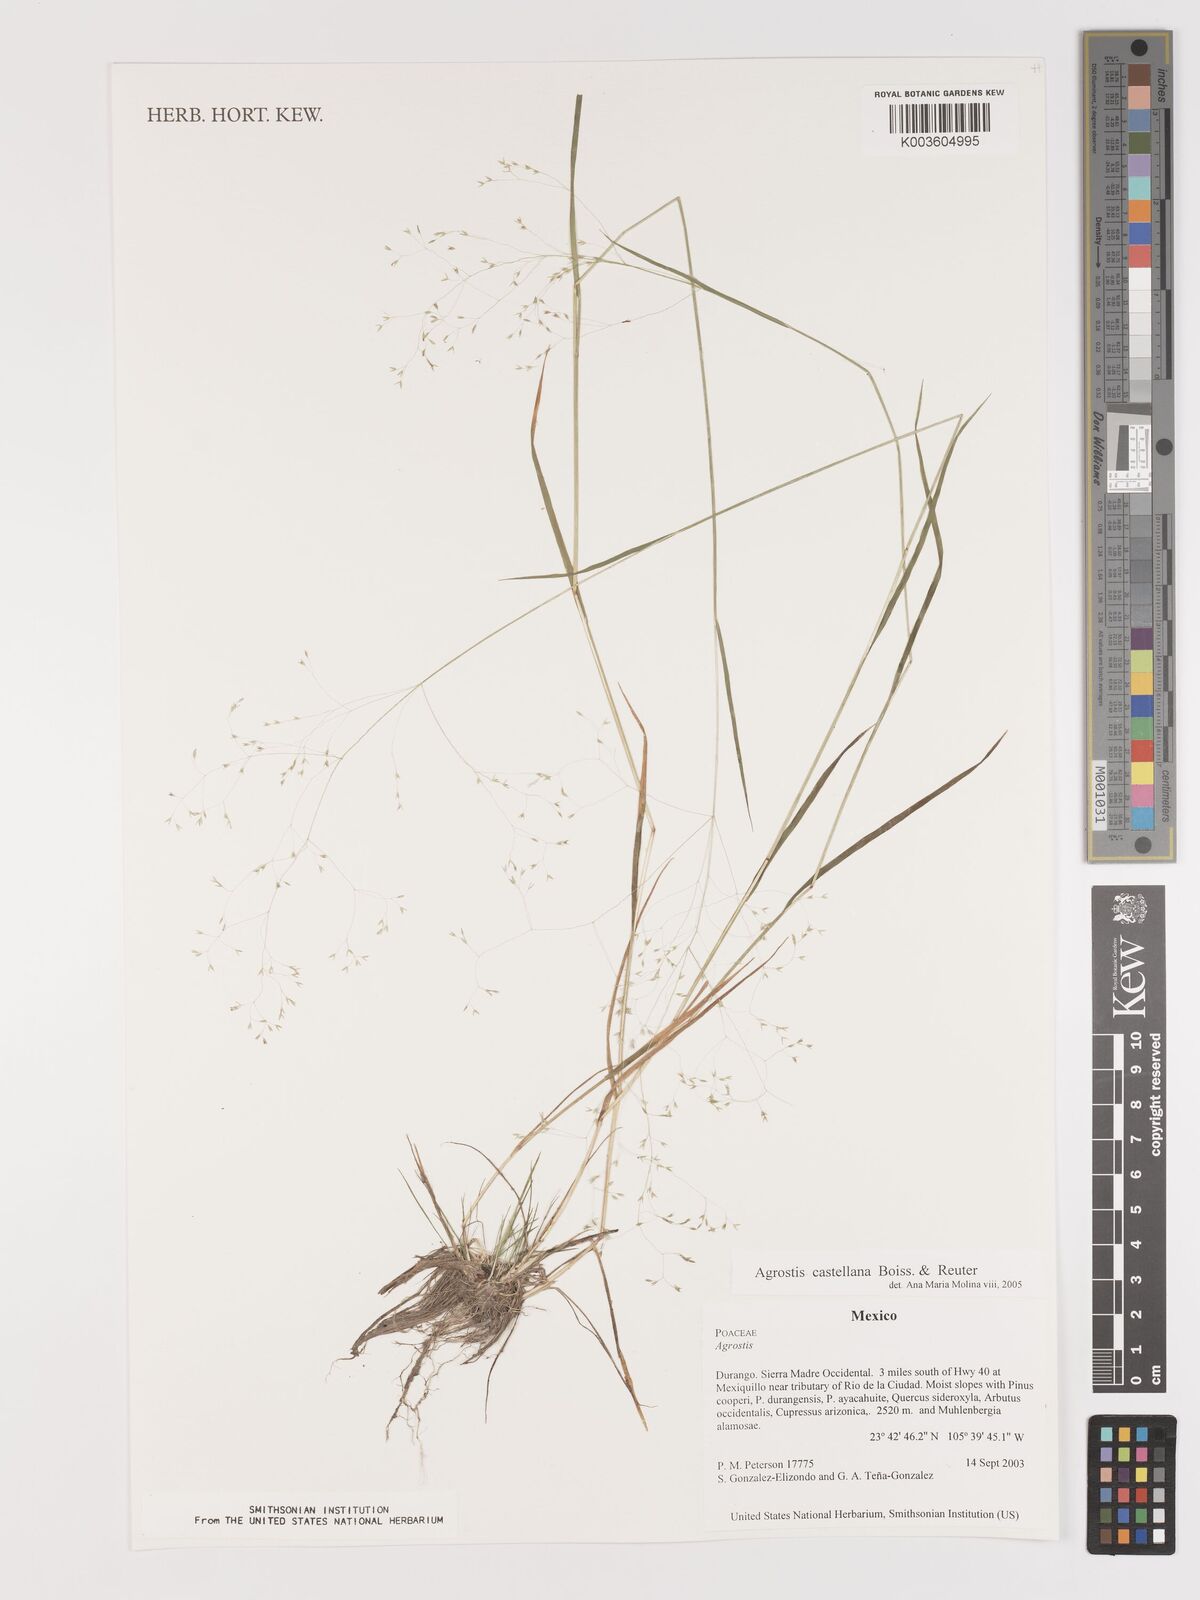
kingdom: Plantae
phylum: Tracheophyta
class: Liliopsida
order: Poales
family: Poaceae
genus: Agrostis
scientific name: Agrostis castellana
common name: Highland bent
